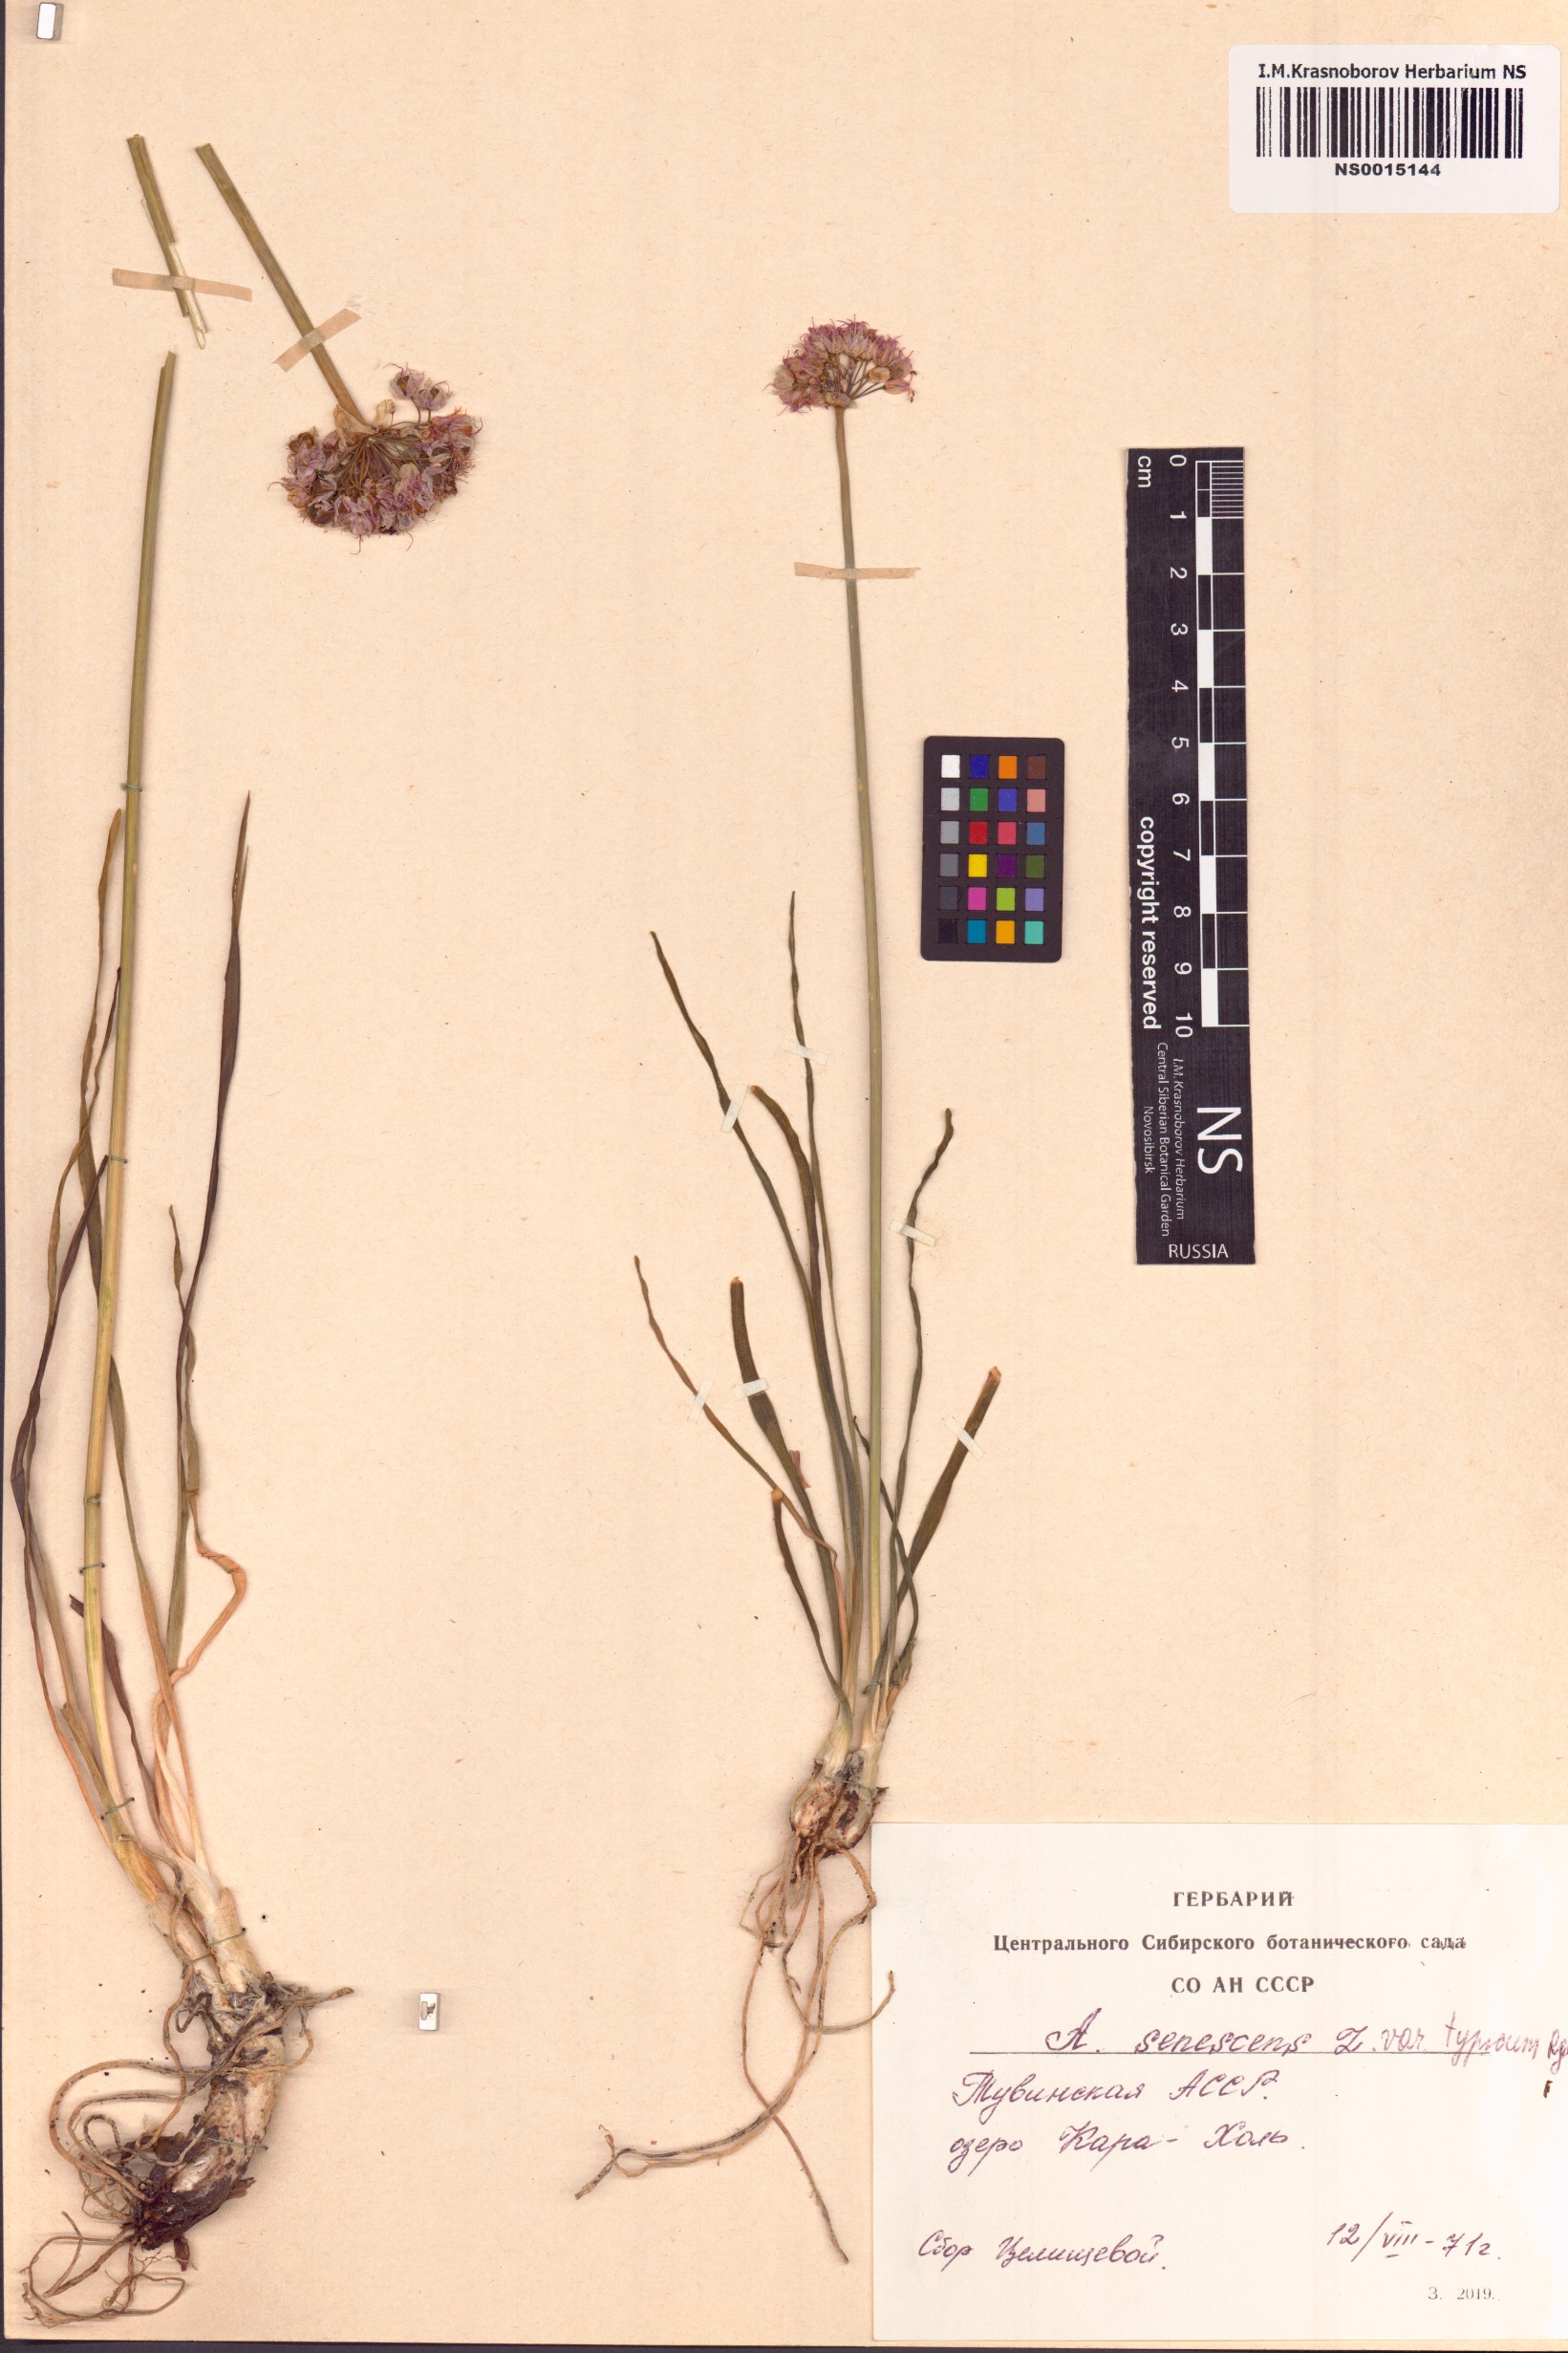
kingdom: Plantae
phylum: Tracheophyta
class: Liliopsida
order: Asparagales
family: Amaryllidaceae
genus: Allium
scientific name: Allium senescens
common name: German garlic
